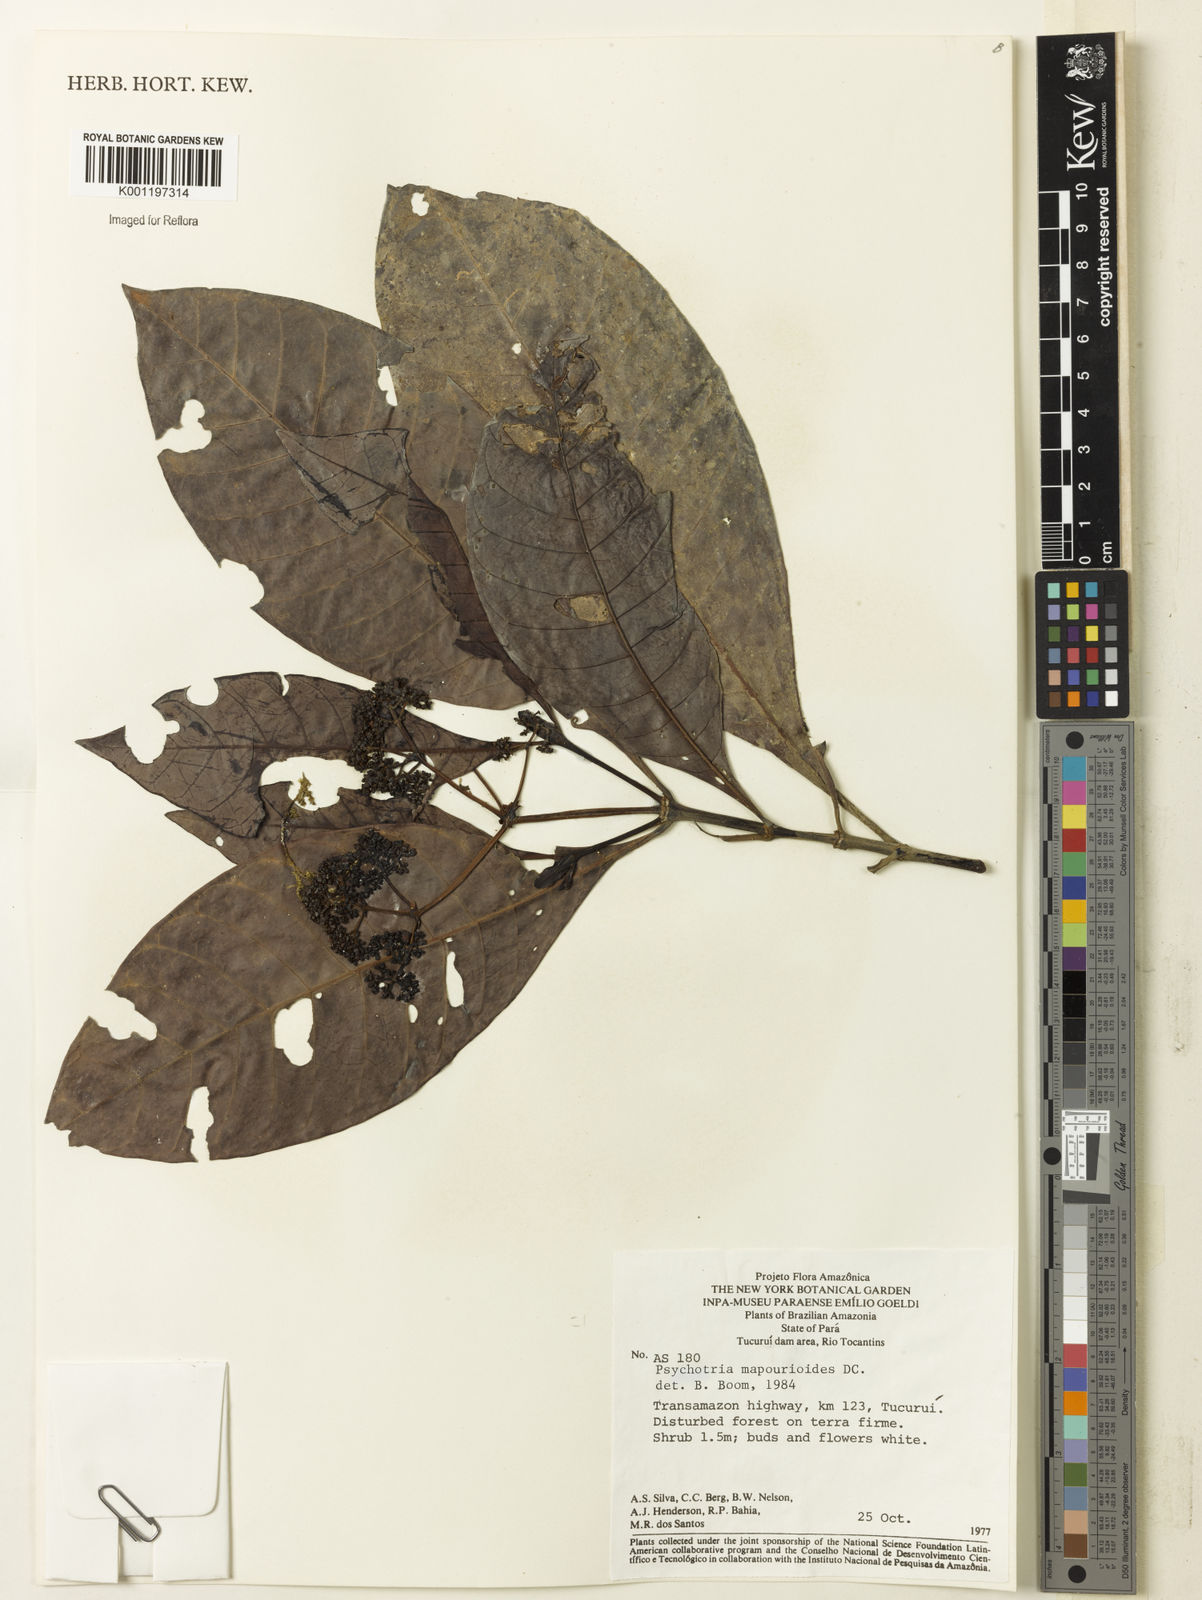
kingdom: Plantae
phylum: Tracheophyta
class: Magnoliopsida
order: Gentianales
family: Rubiaceae
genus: Psychotria
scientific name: Psychotria pedunculosa
